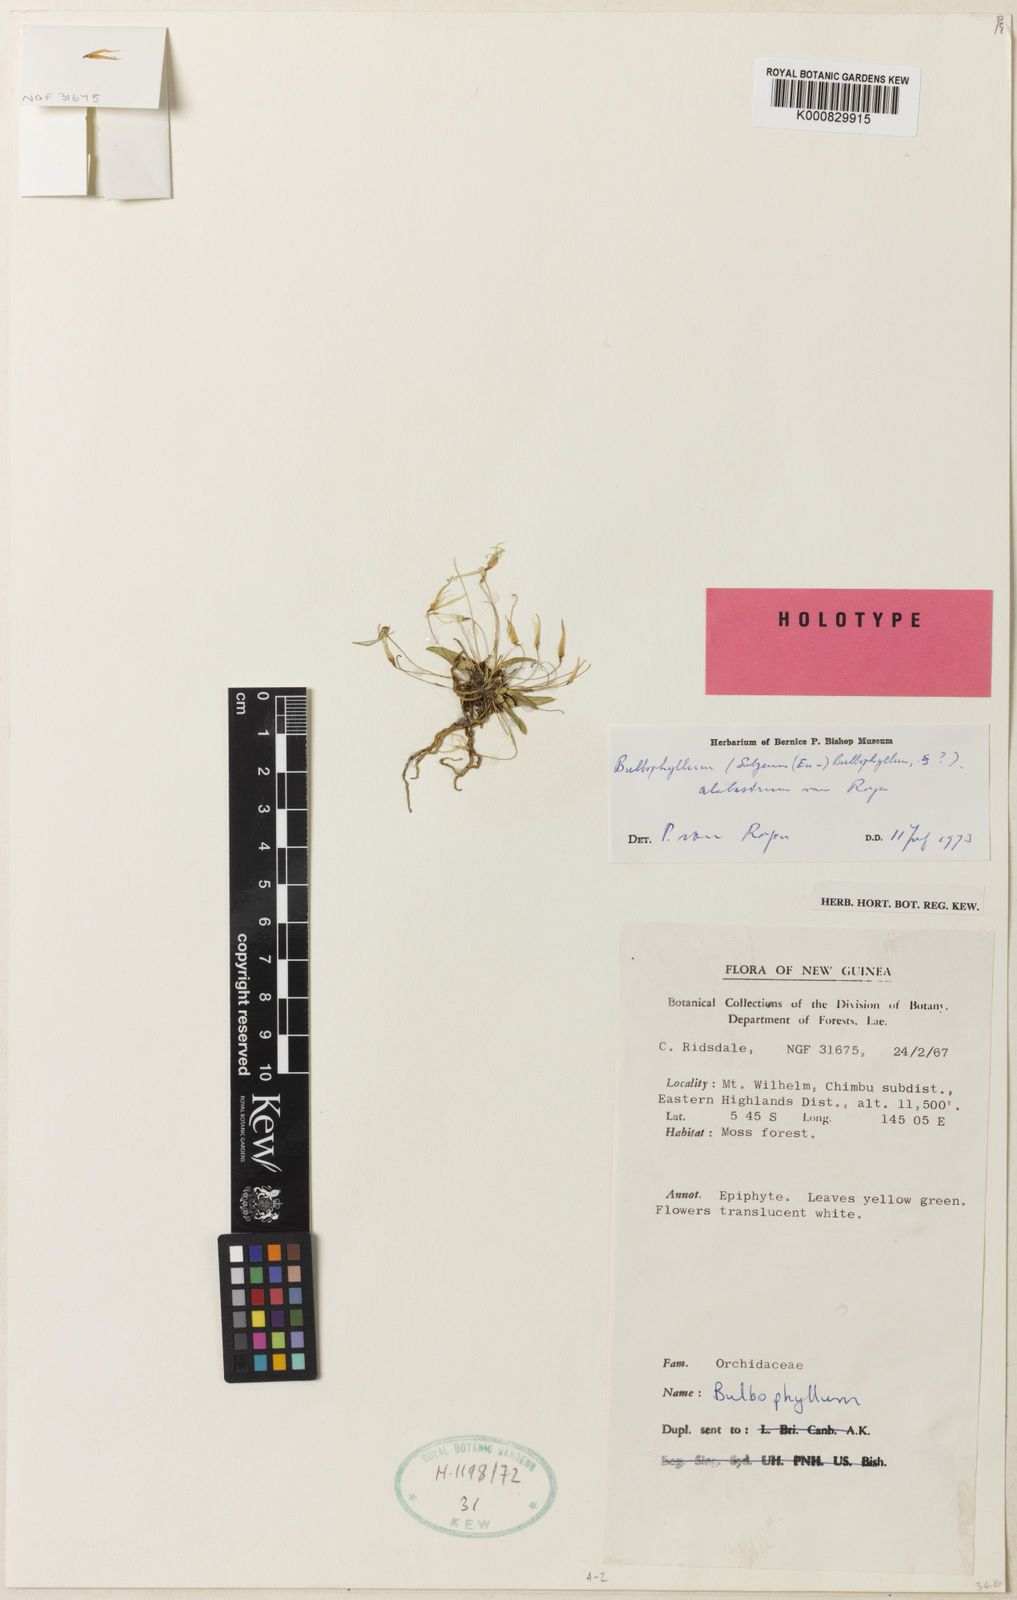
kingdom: Plantae
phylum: Tracheophyta
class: Liliopsida
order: Asparagales
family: Orchidaceae
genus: Bulbophyllum
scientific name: Bulbophyllum citrellum
